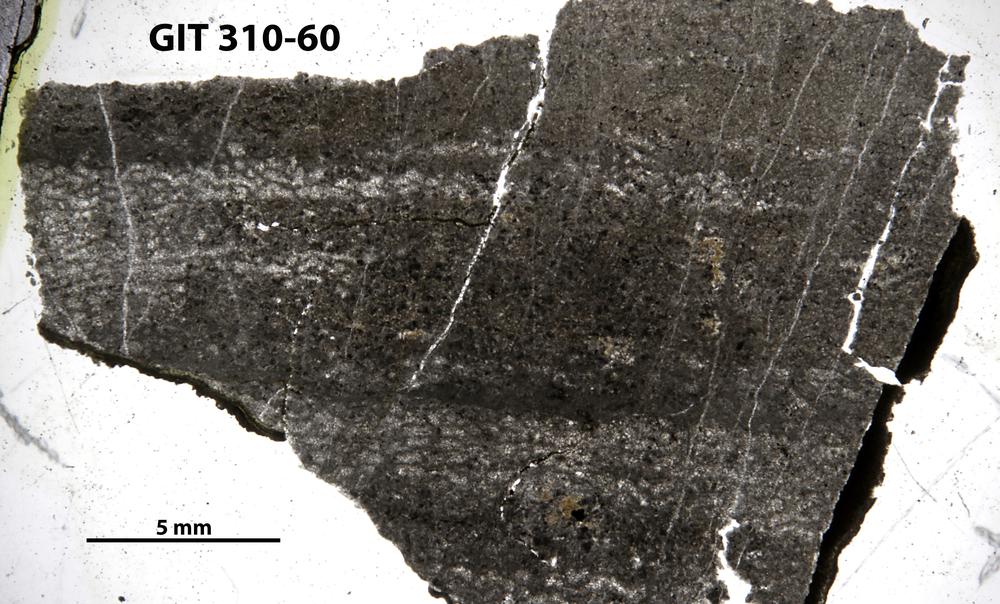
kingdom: Animalia
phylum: Porifera
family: Ecclimadictyidae
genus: Ecclimadictyon
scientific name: Ecclimadictyon
